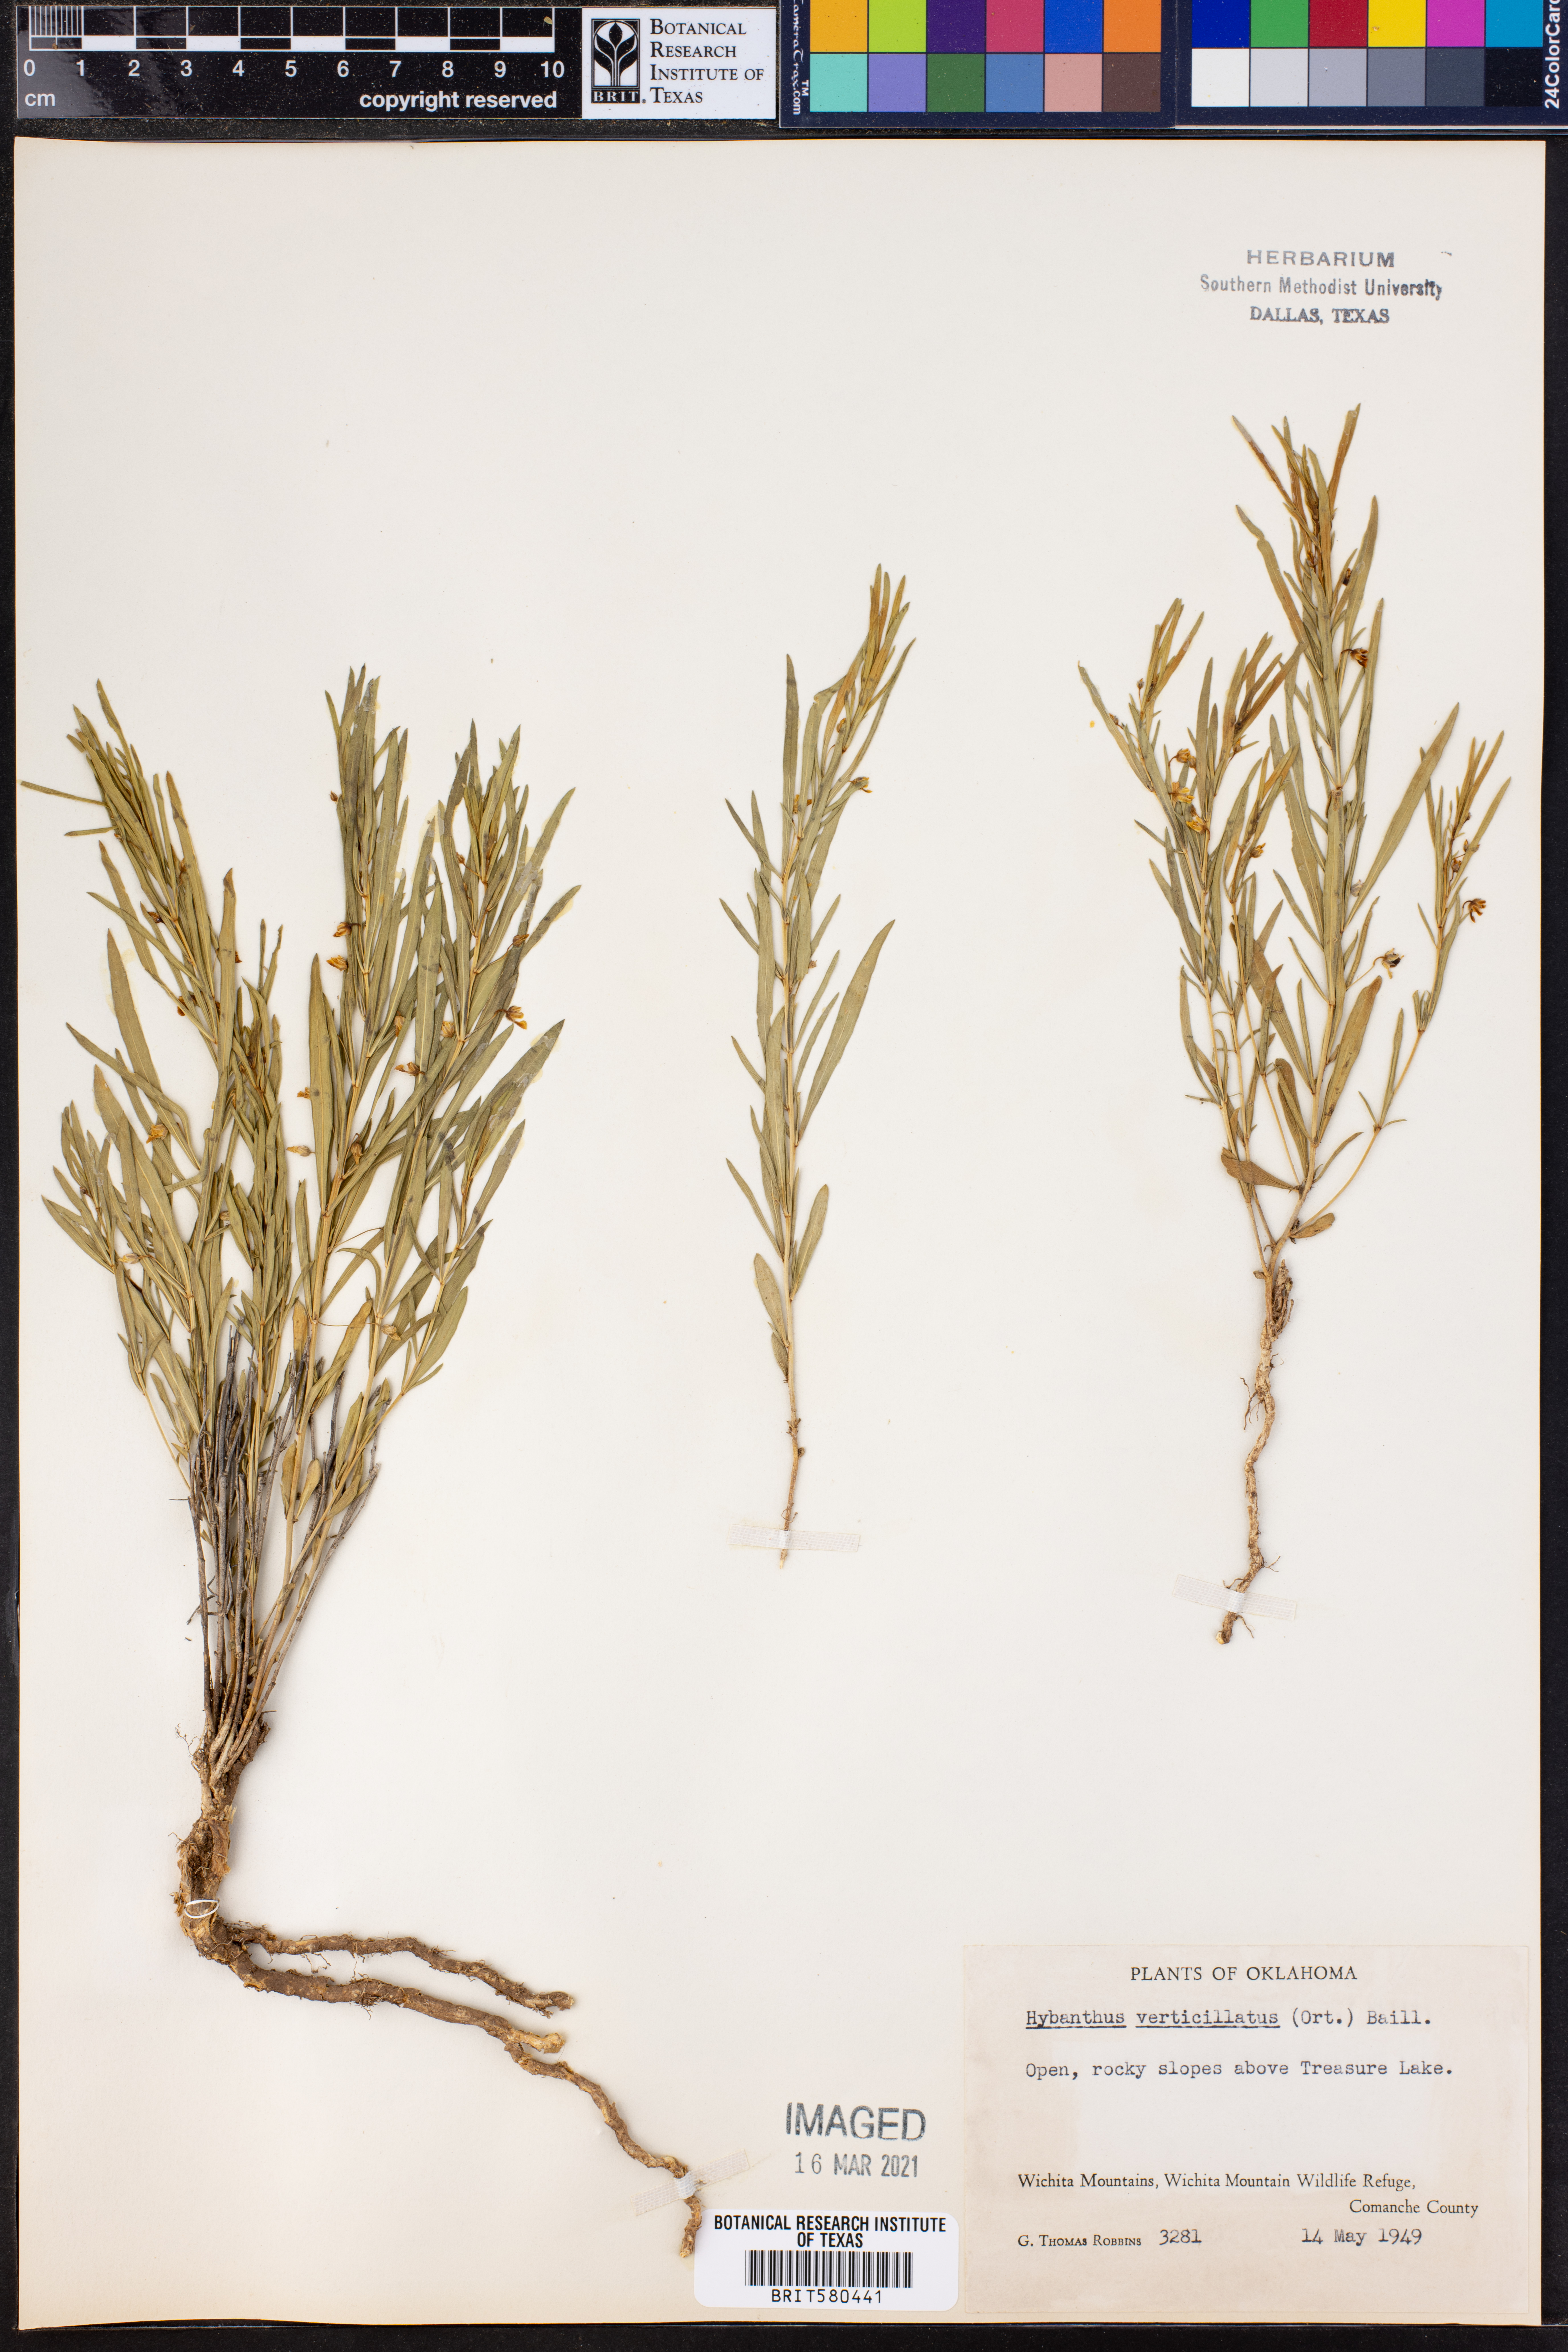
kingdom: Plantae
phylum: Tracheophyta
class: Magnoliopsida
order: Malpighiales
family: Violaceae
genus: Pombalia
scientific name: Pombalia verticillata
